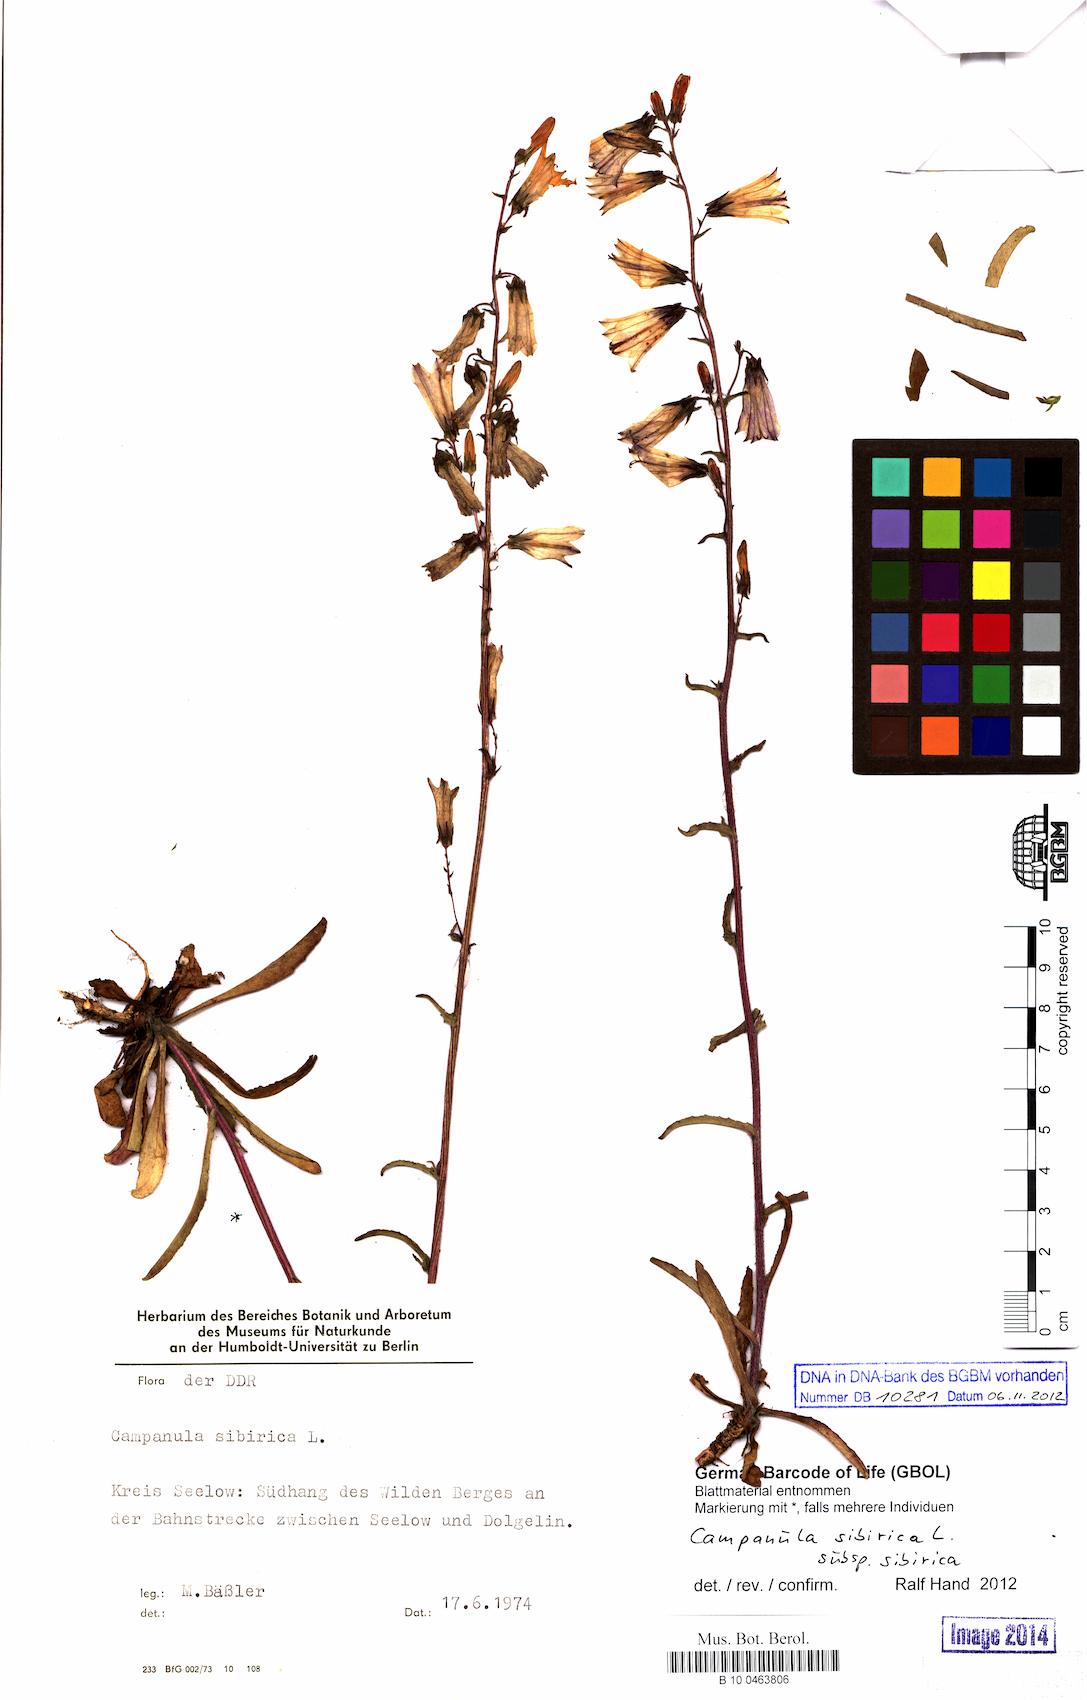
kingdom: Plantae
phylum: Tracheophyta
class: Magnoliopsida
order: Asterales
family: Campanulaceae
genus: Campanula
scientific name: Campanula sibirica
